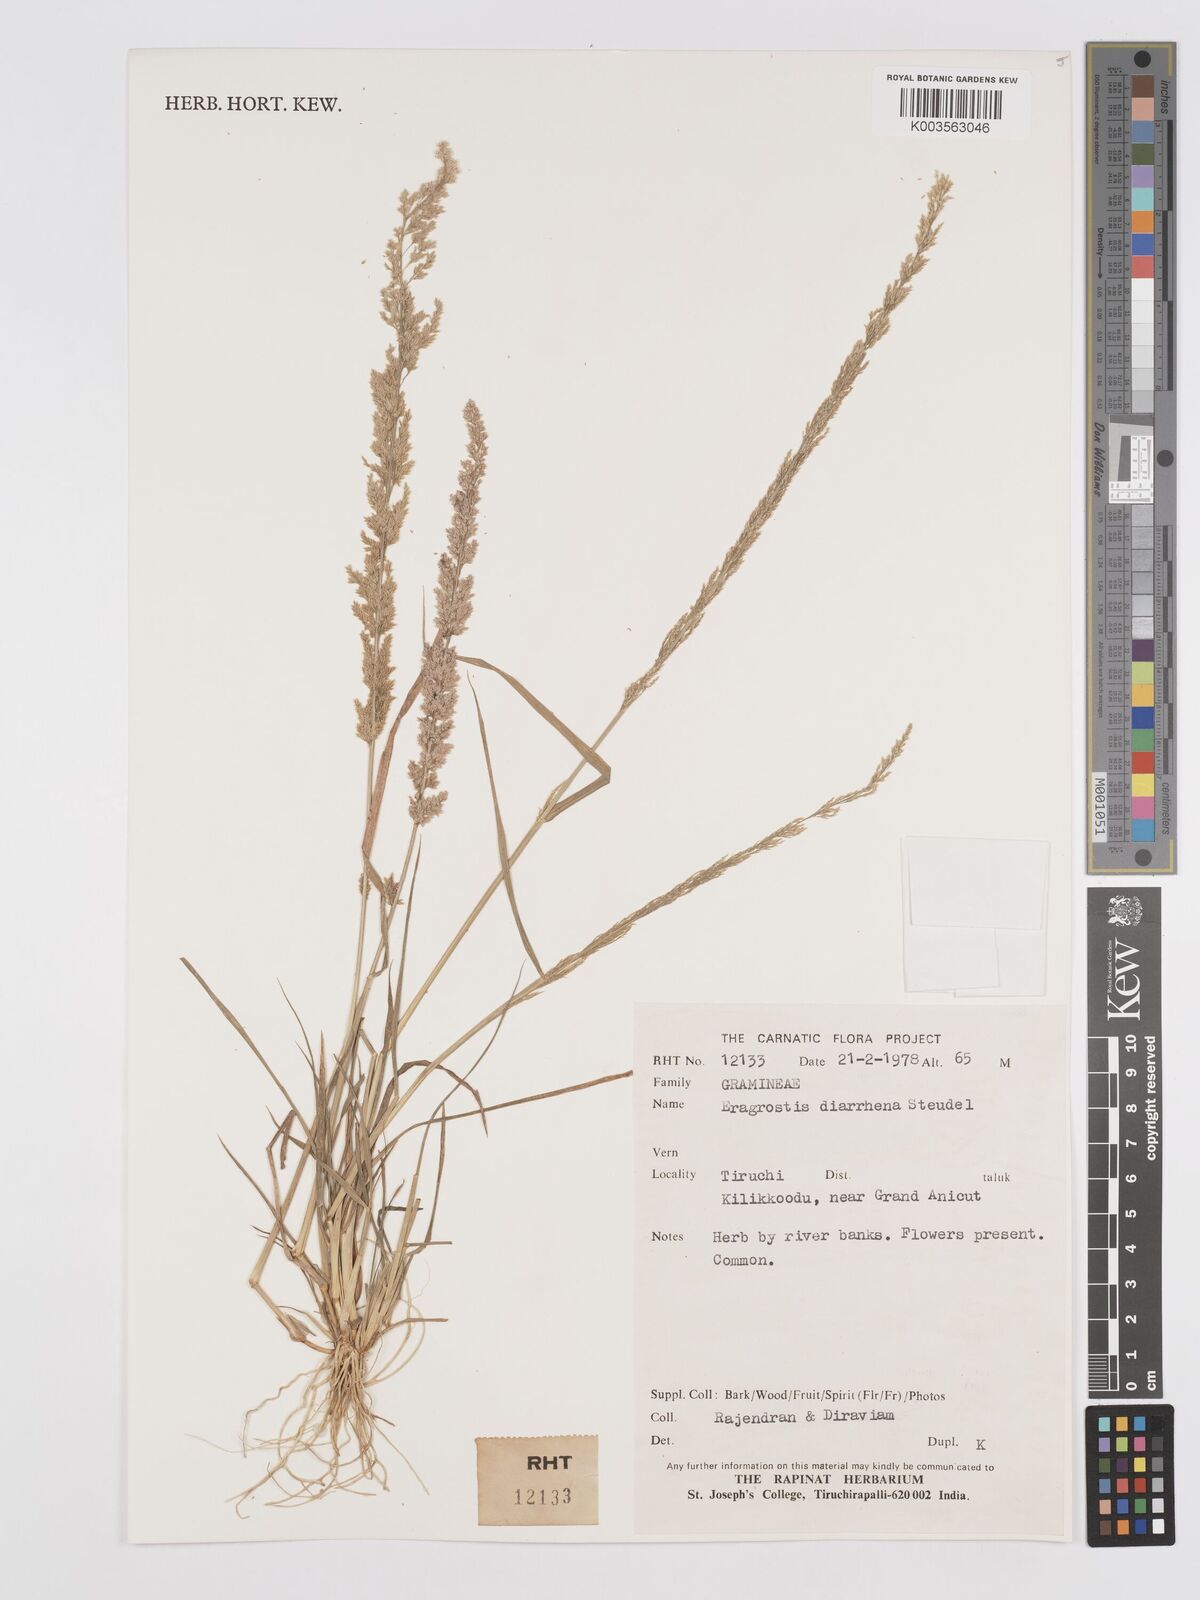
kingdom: Plantae
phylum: Tracheophyta
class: Liliopsida
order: Poales
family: Poaceae
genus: Eragrostis
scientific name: Eragrostis japonica
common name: Pond lovegrass
